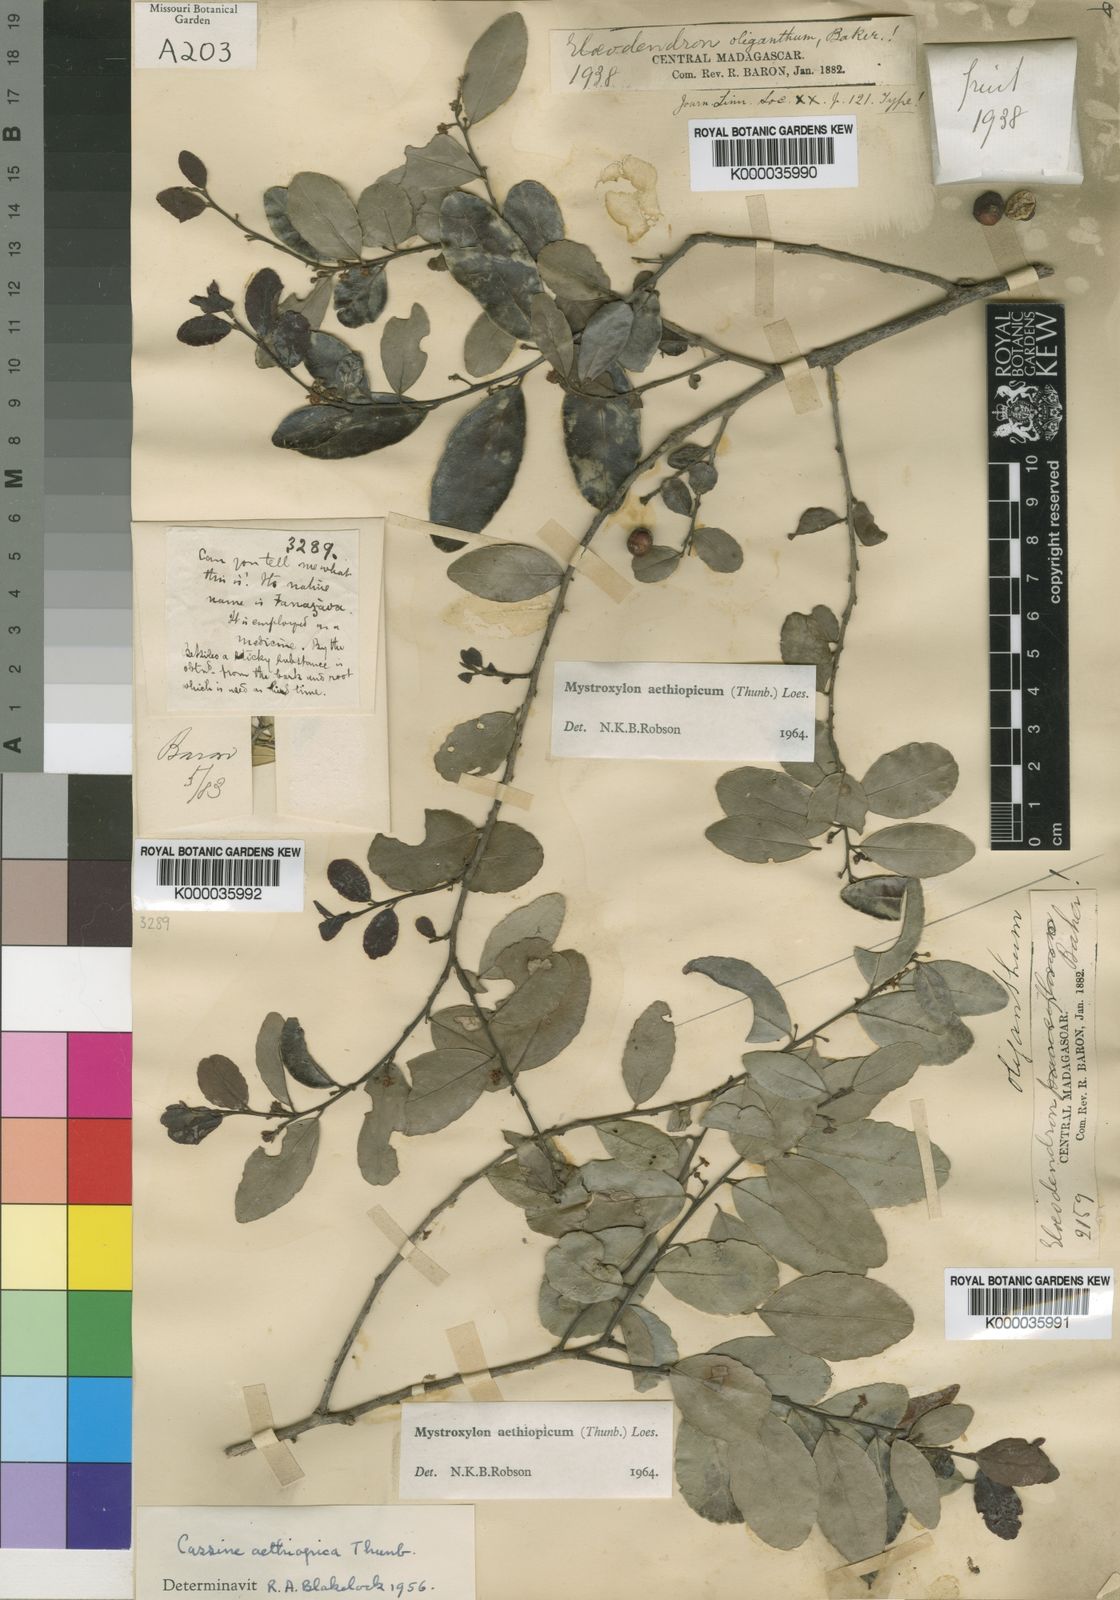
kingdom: Plantae
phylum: Tracheophyta
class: Magnoliopsida
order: Celastrales
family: Celastraceae
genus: Mystroxylon
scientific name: Mystroxylon aethiopicum
